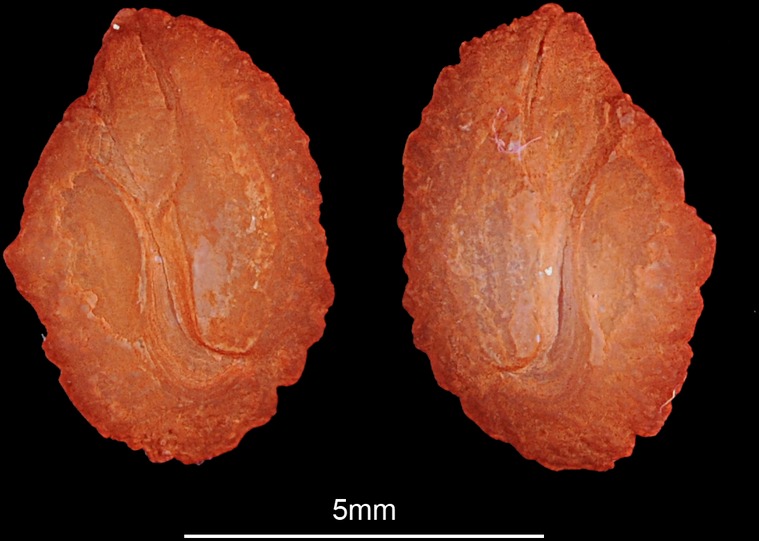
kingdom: Animalia
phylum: Chordata
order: Perciformes
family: Cichlidae
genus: Sarotherodon
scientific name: Sarotherodon galilaeus
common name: Mango tilapia
